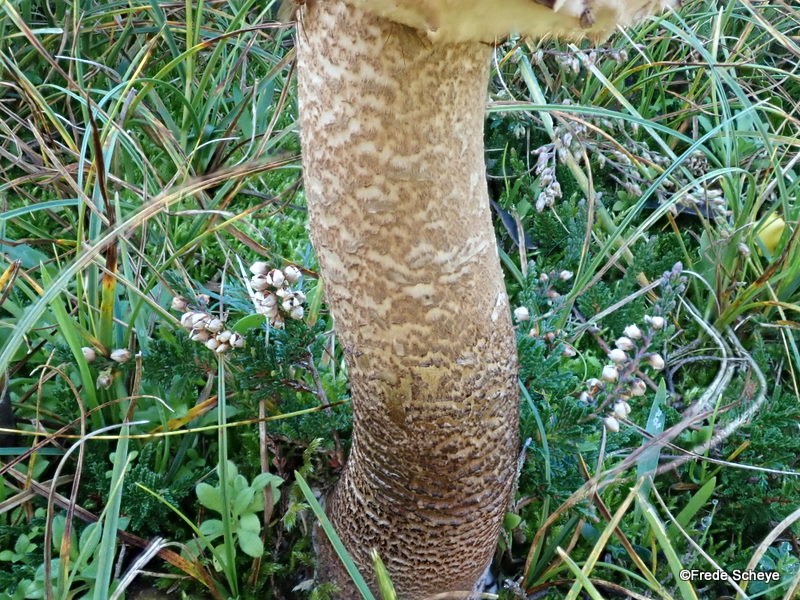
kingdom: Fungi
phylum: Basidiomycota
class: Agaricomycetes
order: Agaricales
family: Agaricaceae
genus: Macrolepiota
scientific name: Macrolepiota procera
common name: stor kæmpeparasolhat
